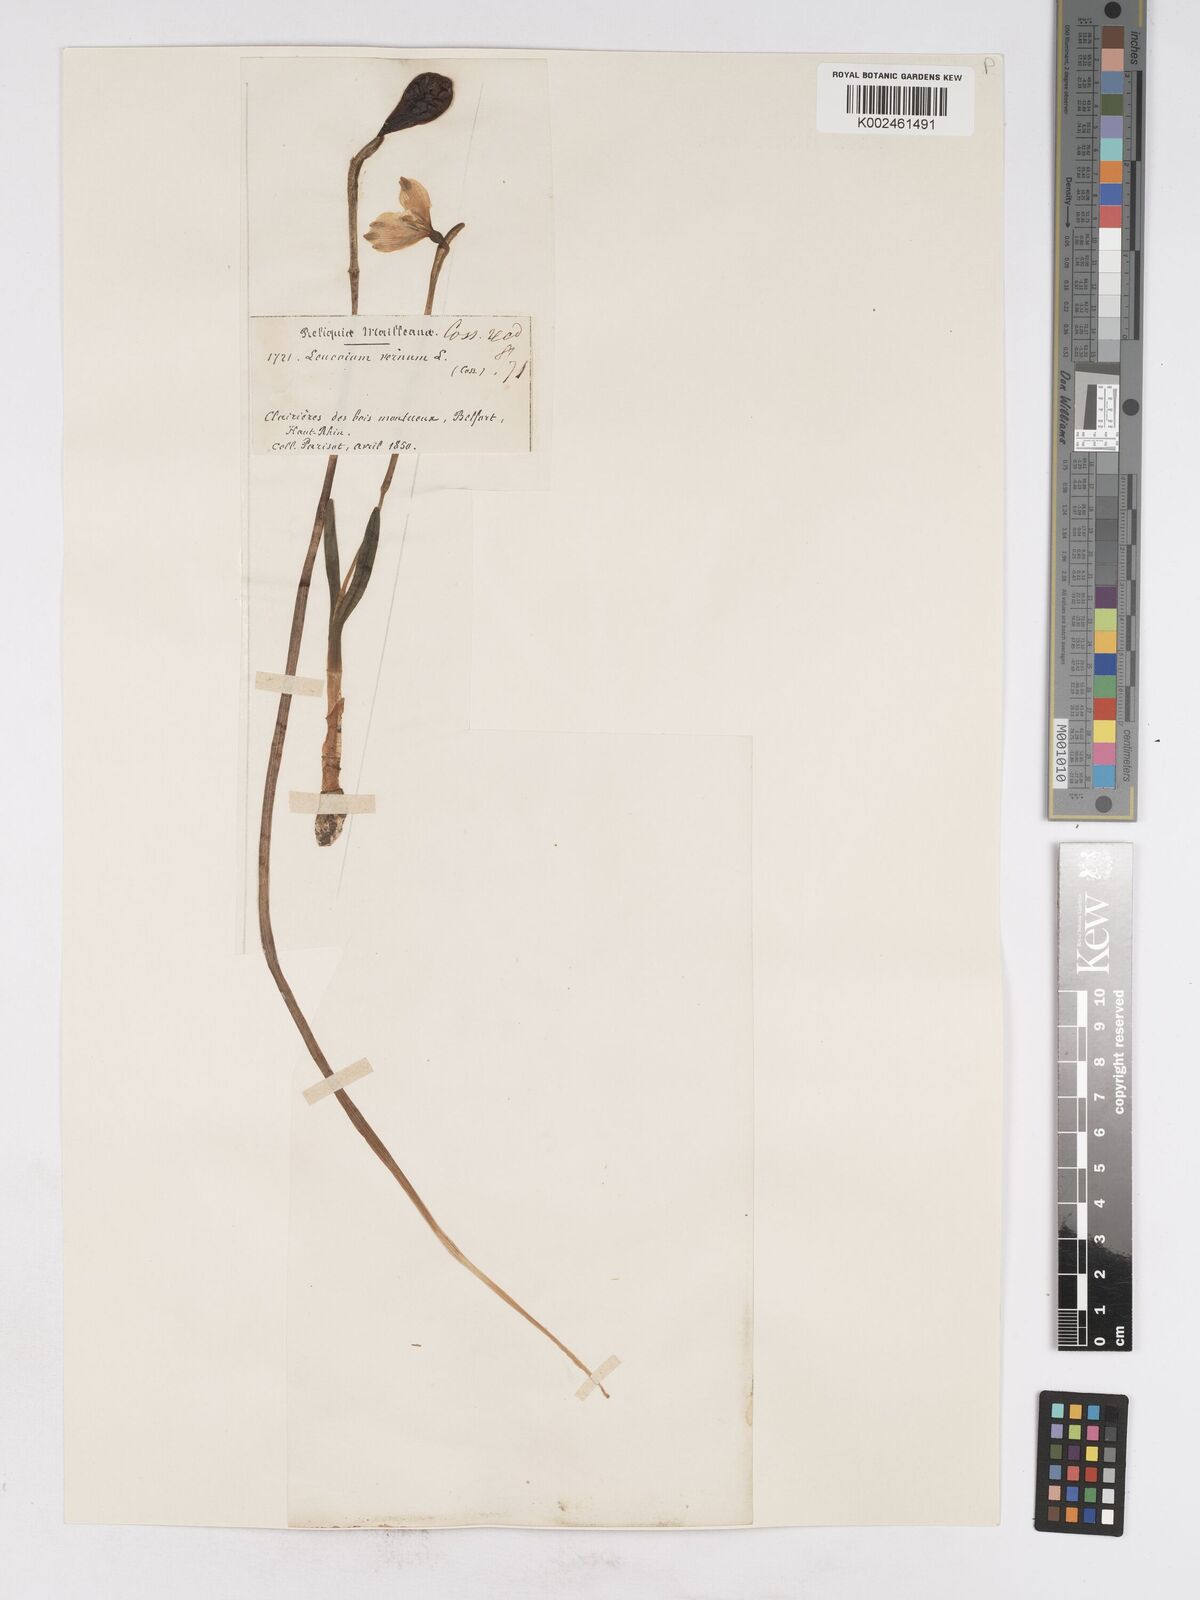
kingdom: Plantae
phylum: Tracheophyta
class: Liliopsida
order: Asparagales
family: Amaryllidaceae
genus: Leucojum
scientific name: Leucojum vernum
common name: Spring snowflake
